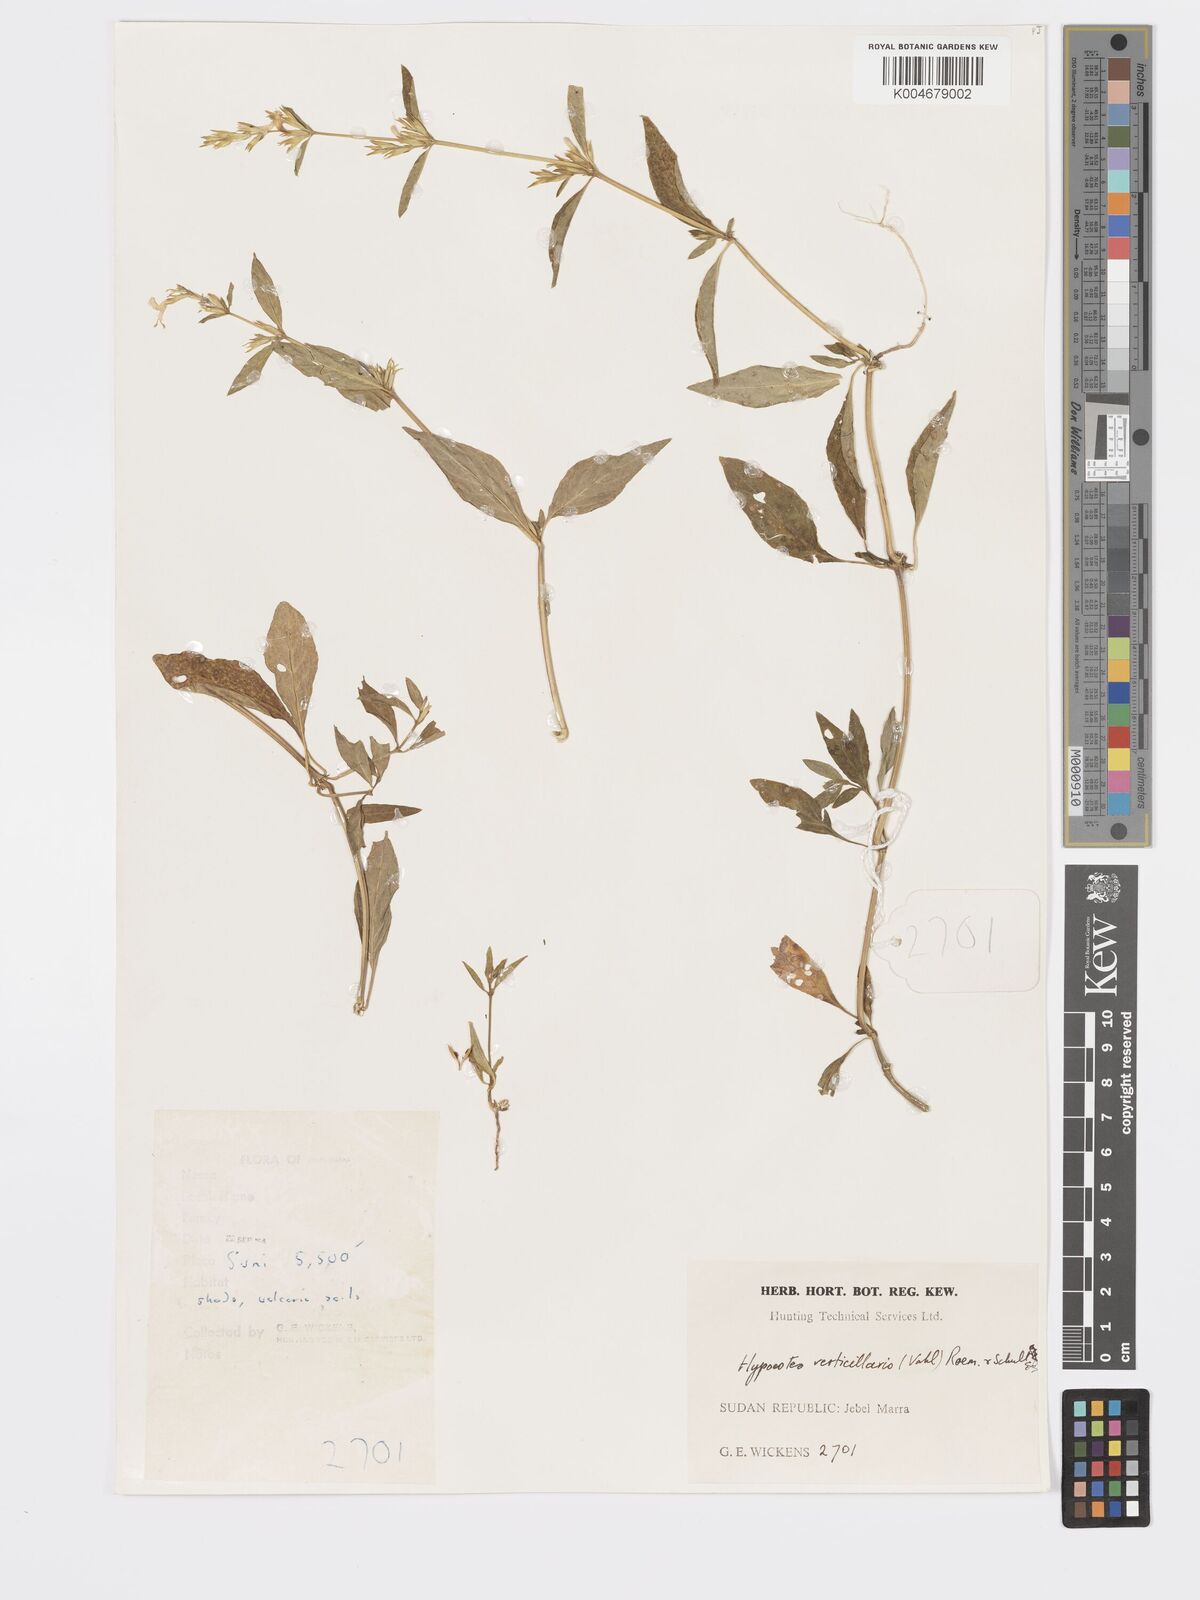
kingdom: Plantae
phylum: Tracheophyta
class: Magnoliopsida
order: Lamiales
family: Acanthaceae
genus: Hypoestes
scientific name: Hypoestes forskaolii
